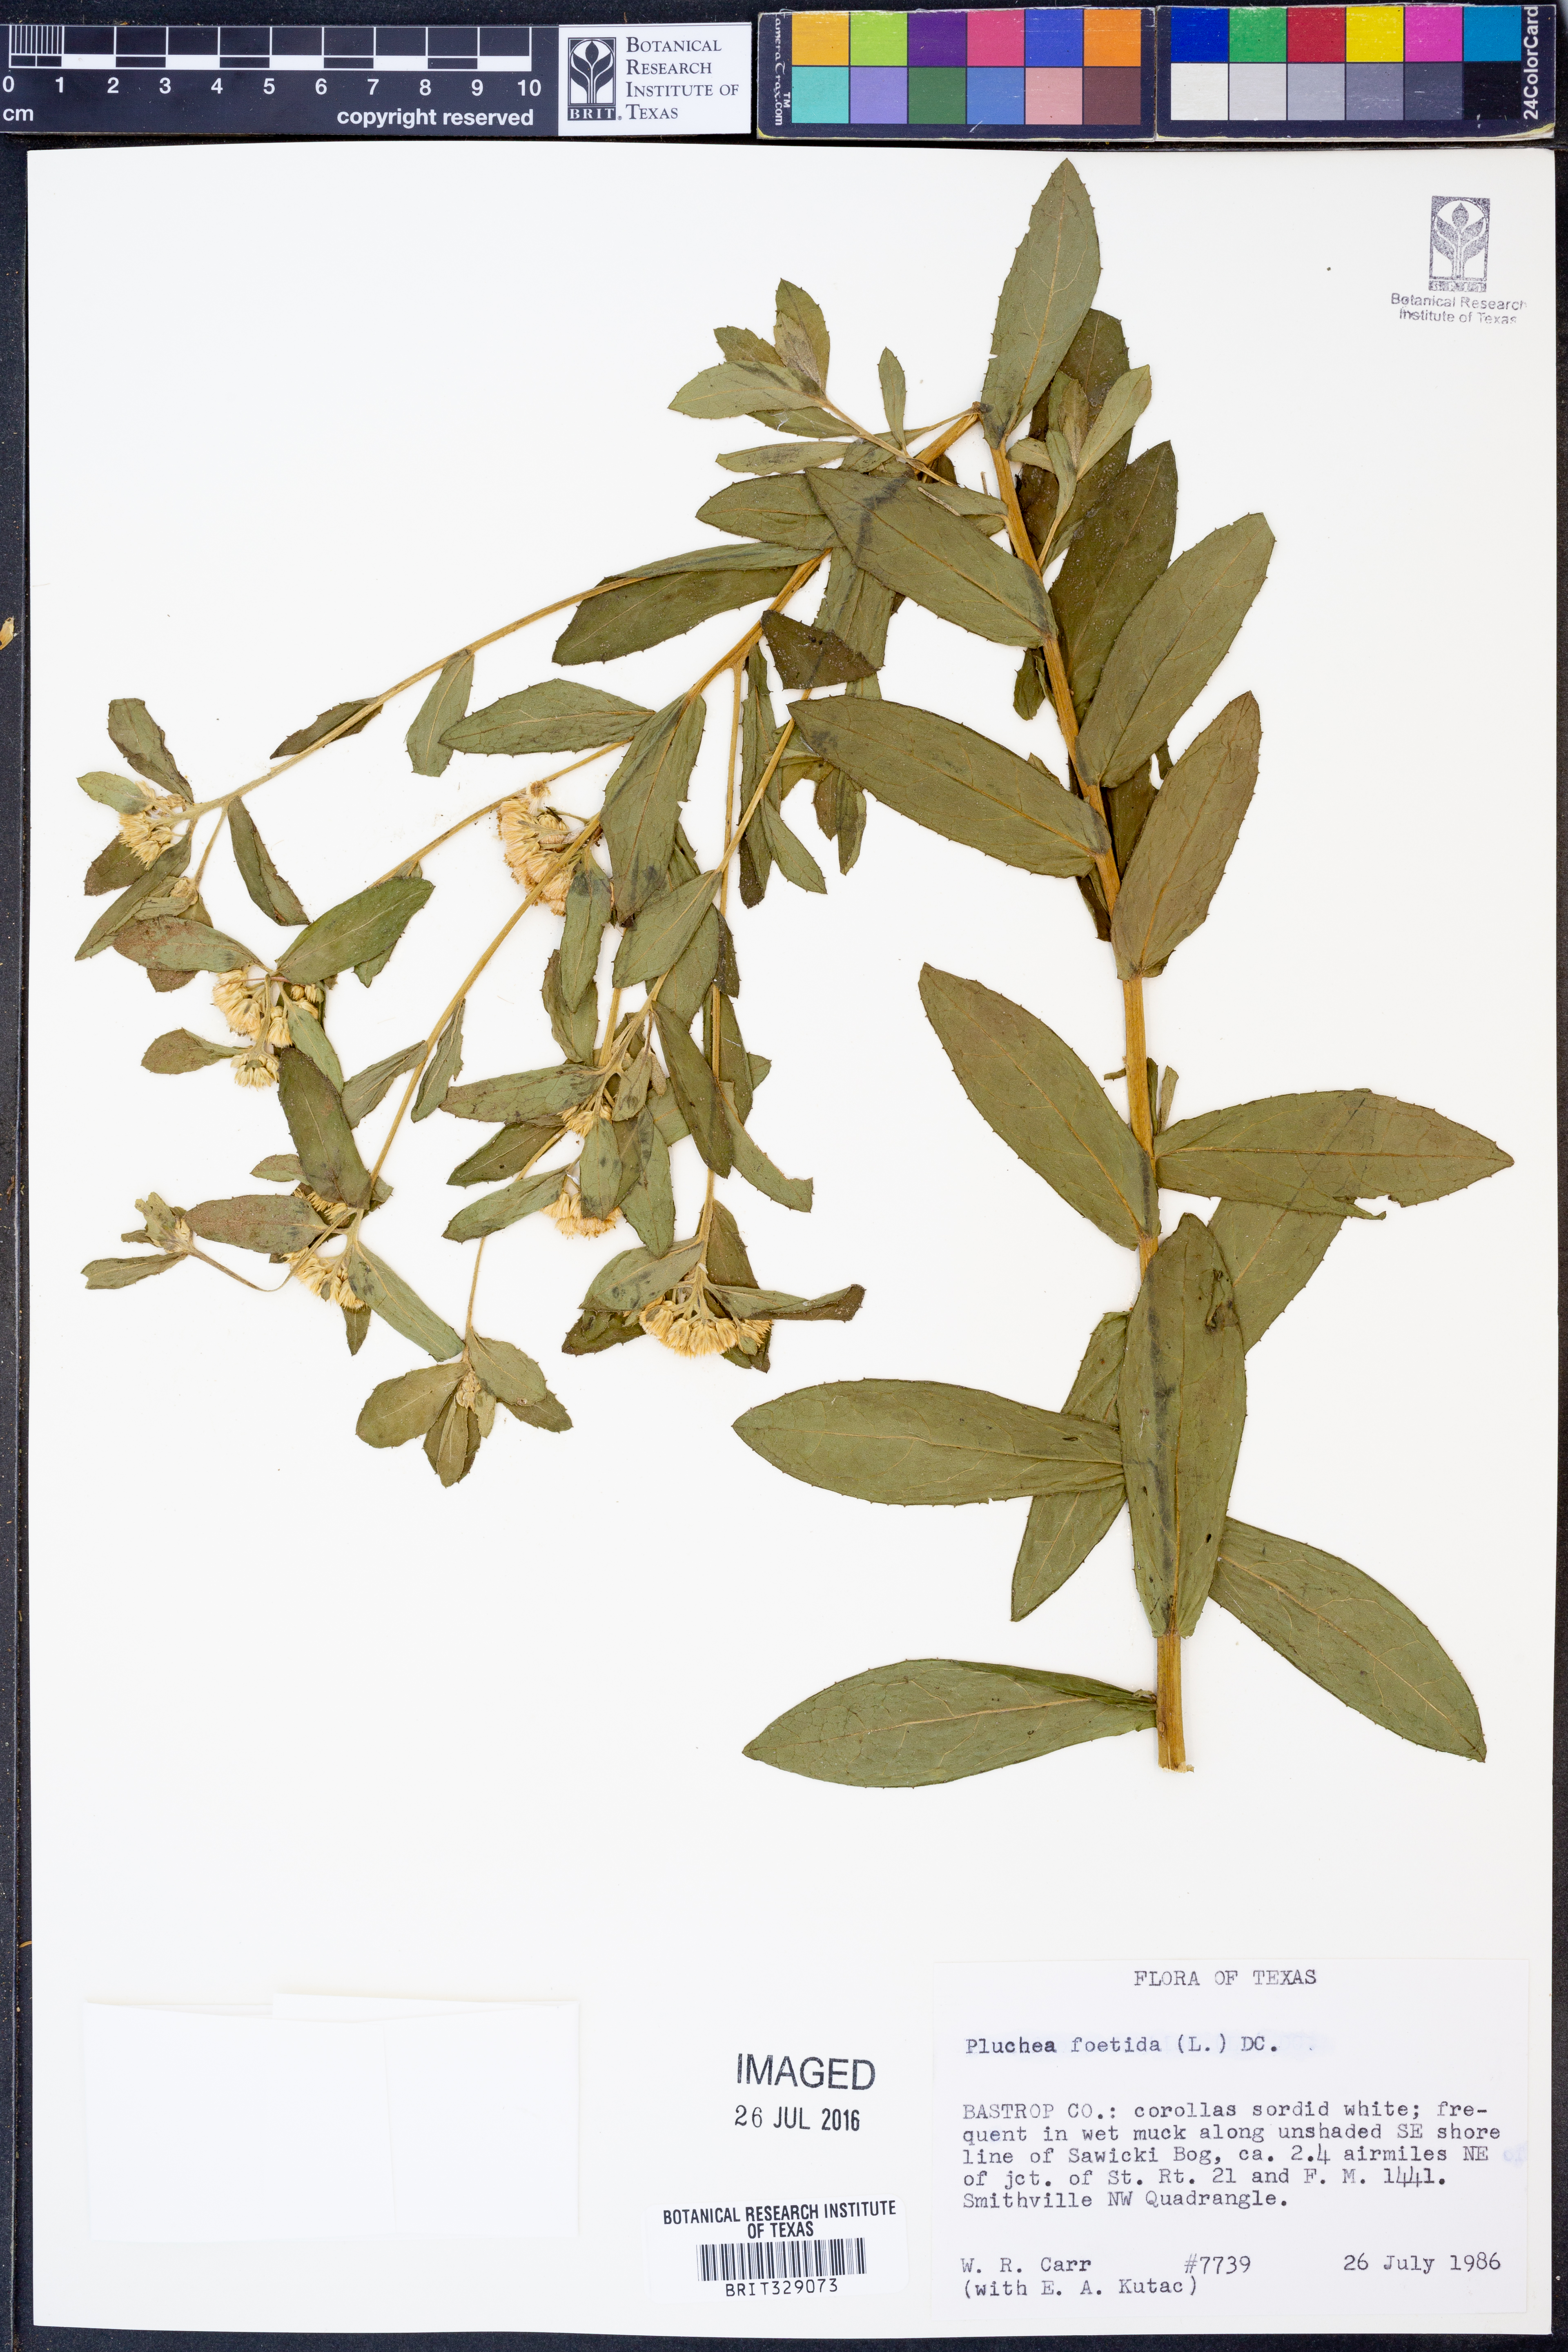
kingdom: Plantae
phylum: Tracheophyta
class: Magnoliopsida
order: Asterales
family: Asteraceae
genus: Pluchea
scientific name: Pluchea foetida
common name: Stinking camphorweed
